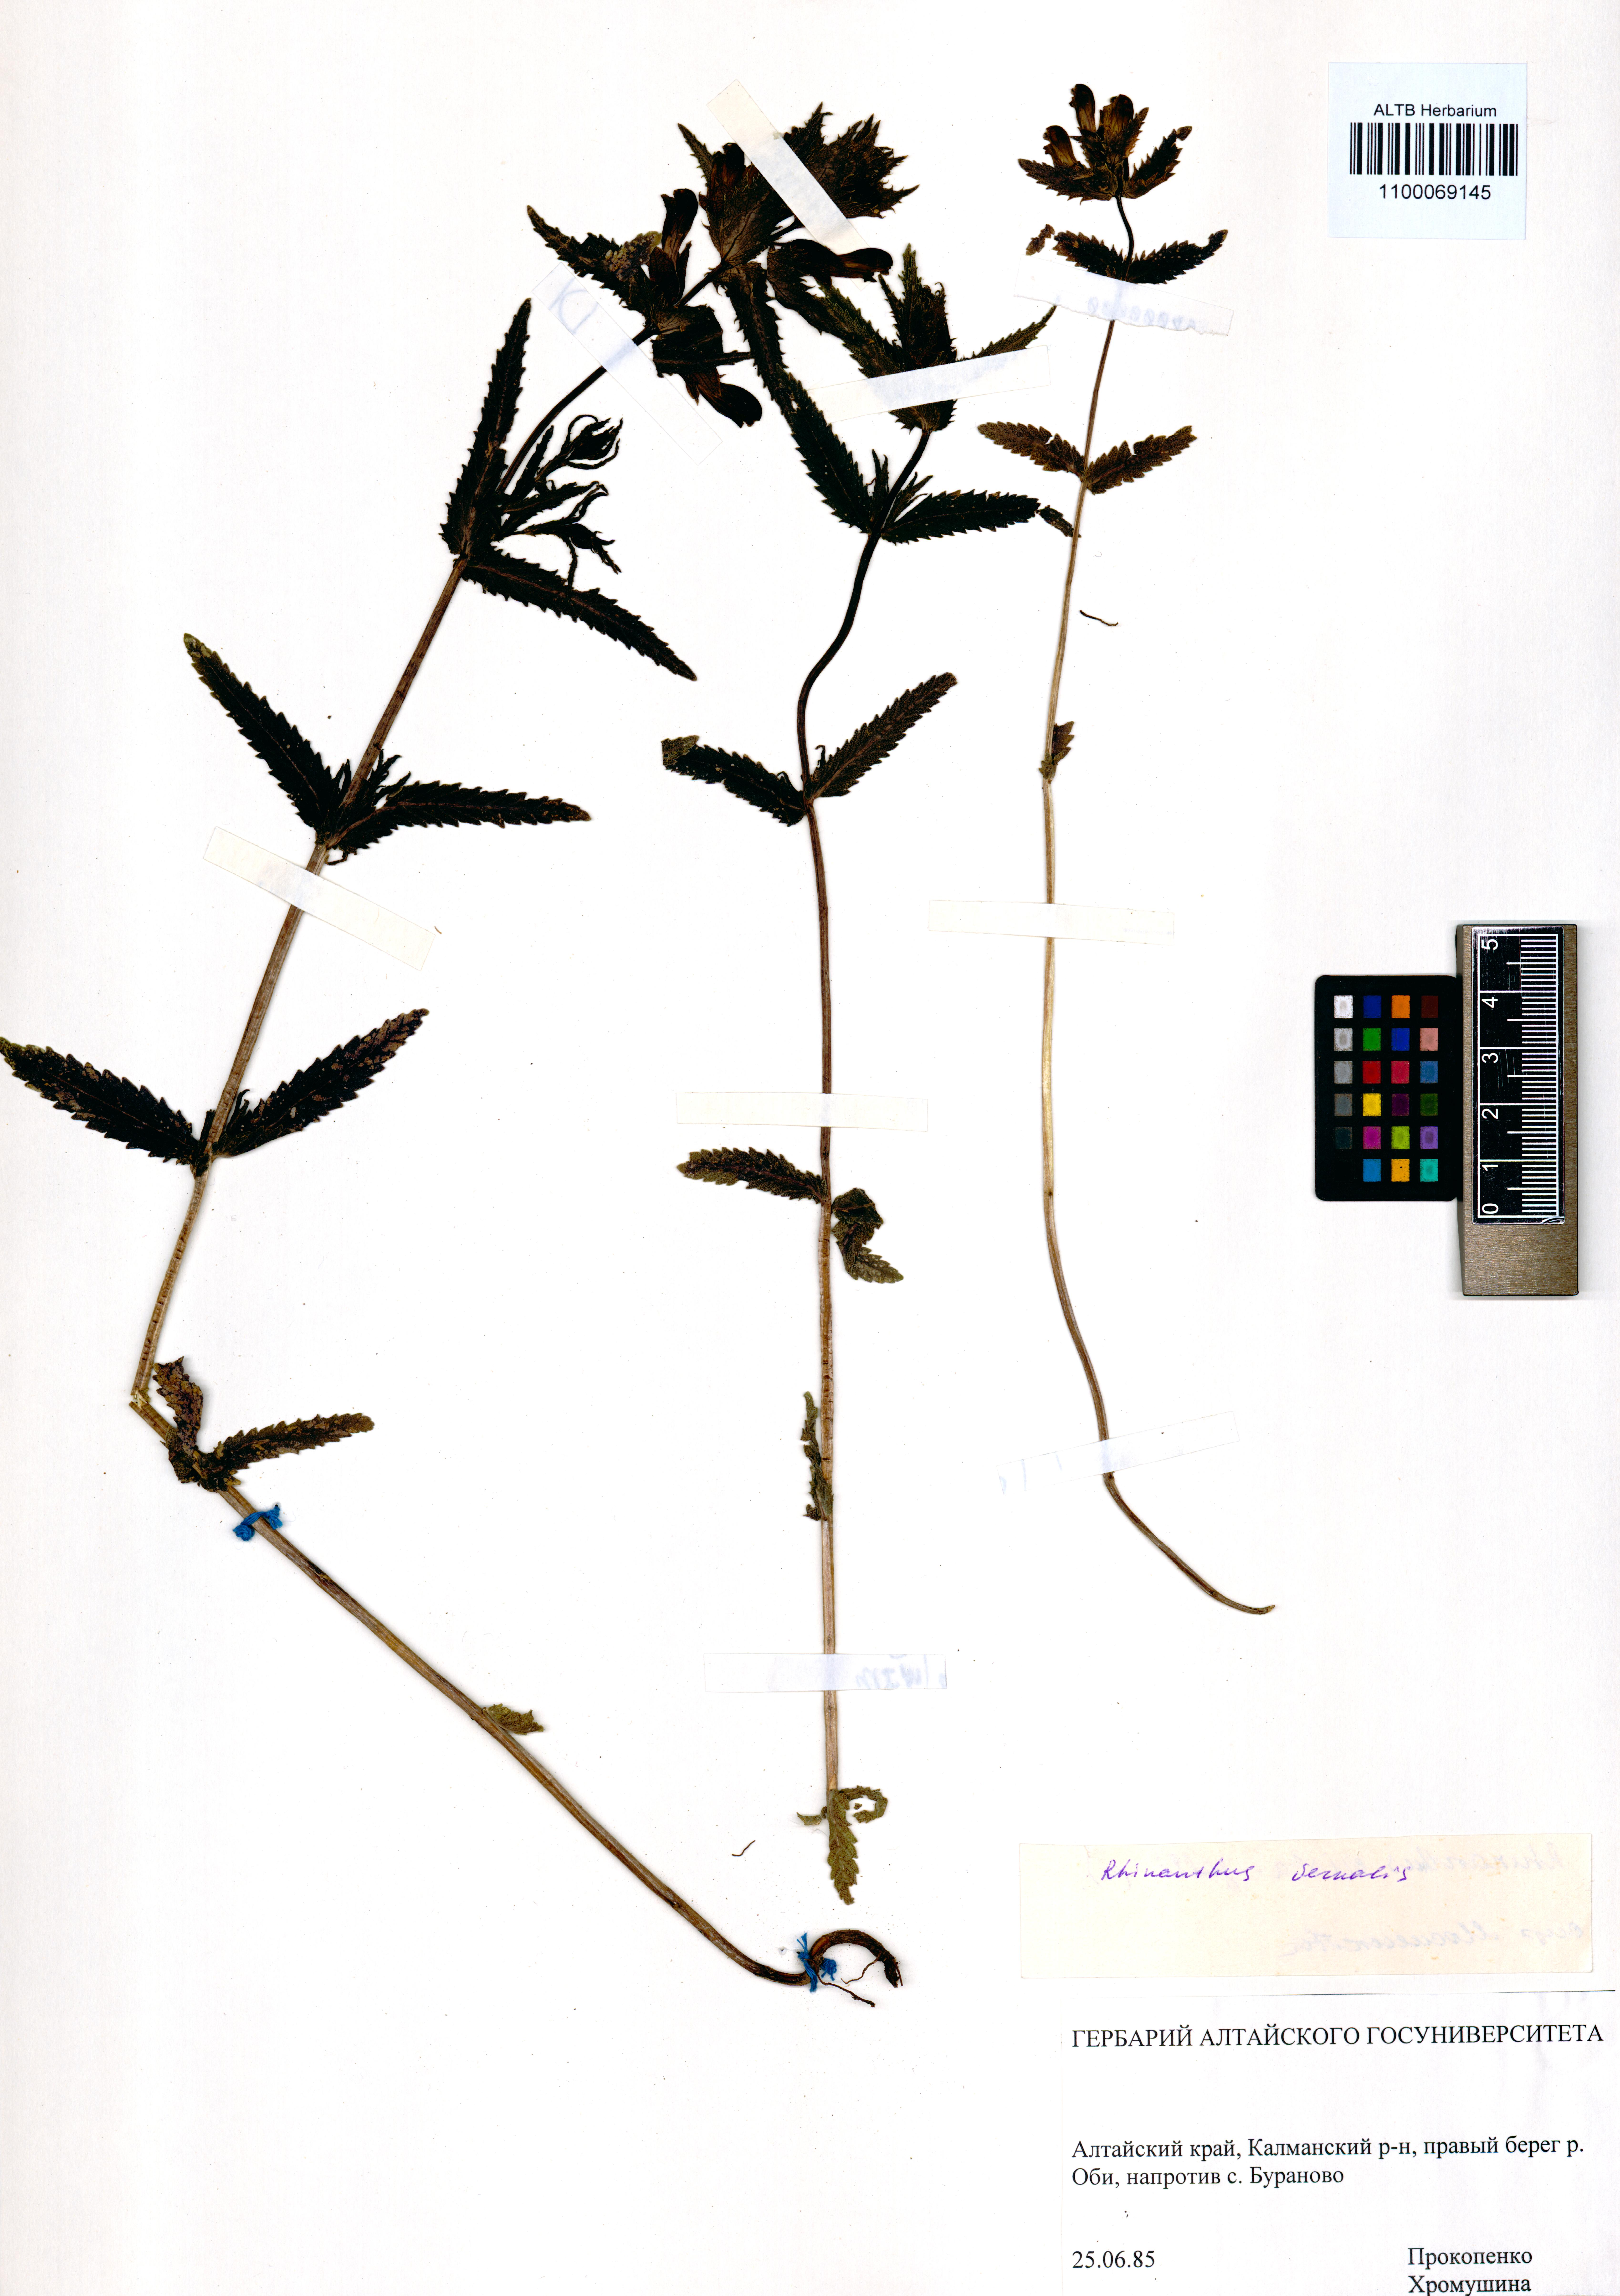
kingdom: Plantae
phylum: Tracheophyta
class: Magnoliopsida
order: Lamiales
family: Orobanchaceae
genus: Rhinanthus
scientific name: Rhinanthus serotinus
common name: Late-flowering yellow rattle
